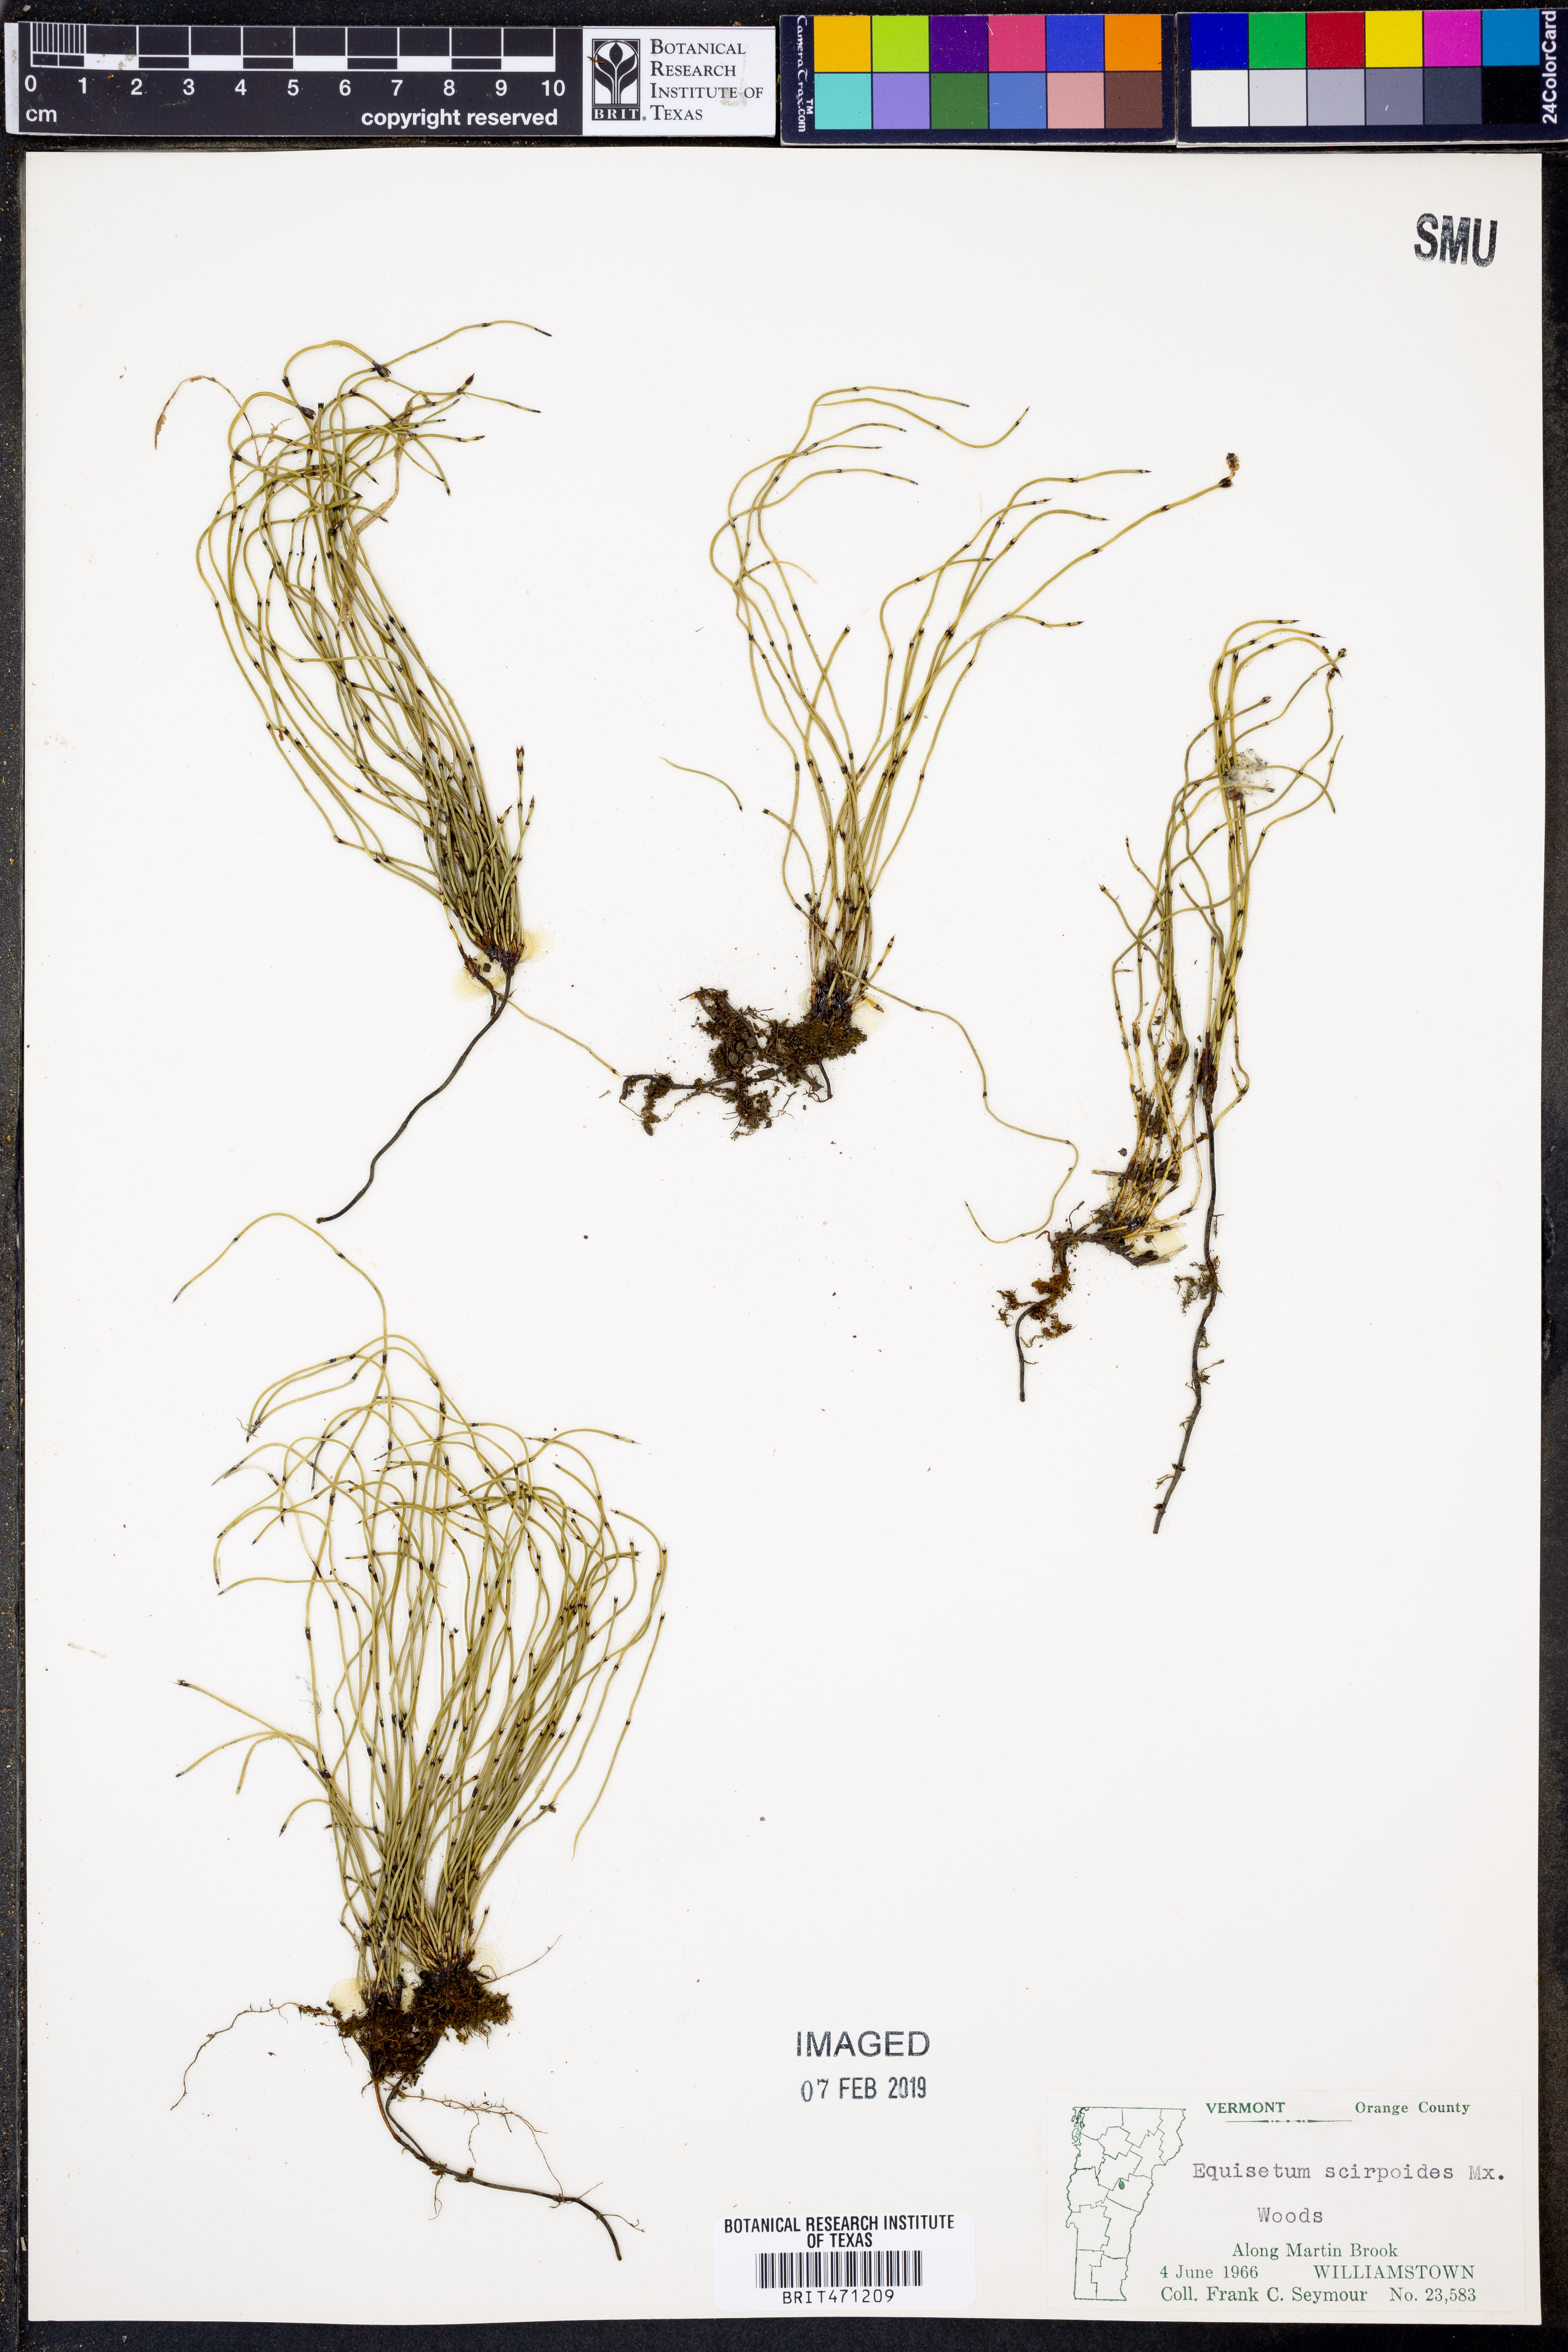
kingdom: Plantae
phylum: Tracheophyta
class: Polypodiopsida
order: Equisetales
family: Equisetaceae
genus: Equisetum
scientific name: Equisetum scirpoides
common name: Delicate horsetail
